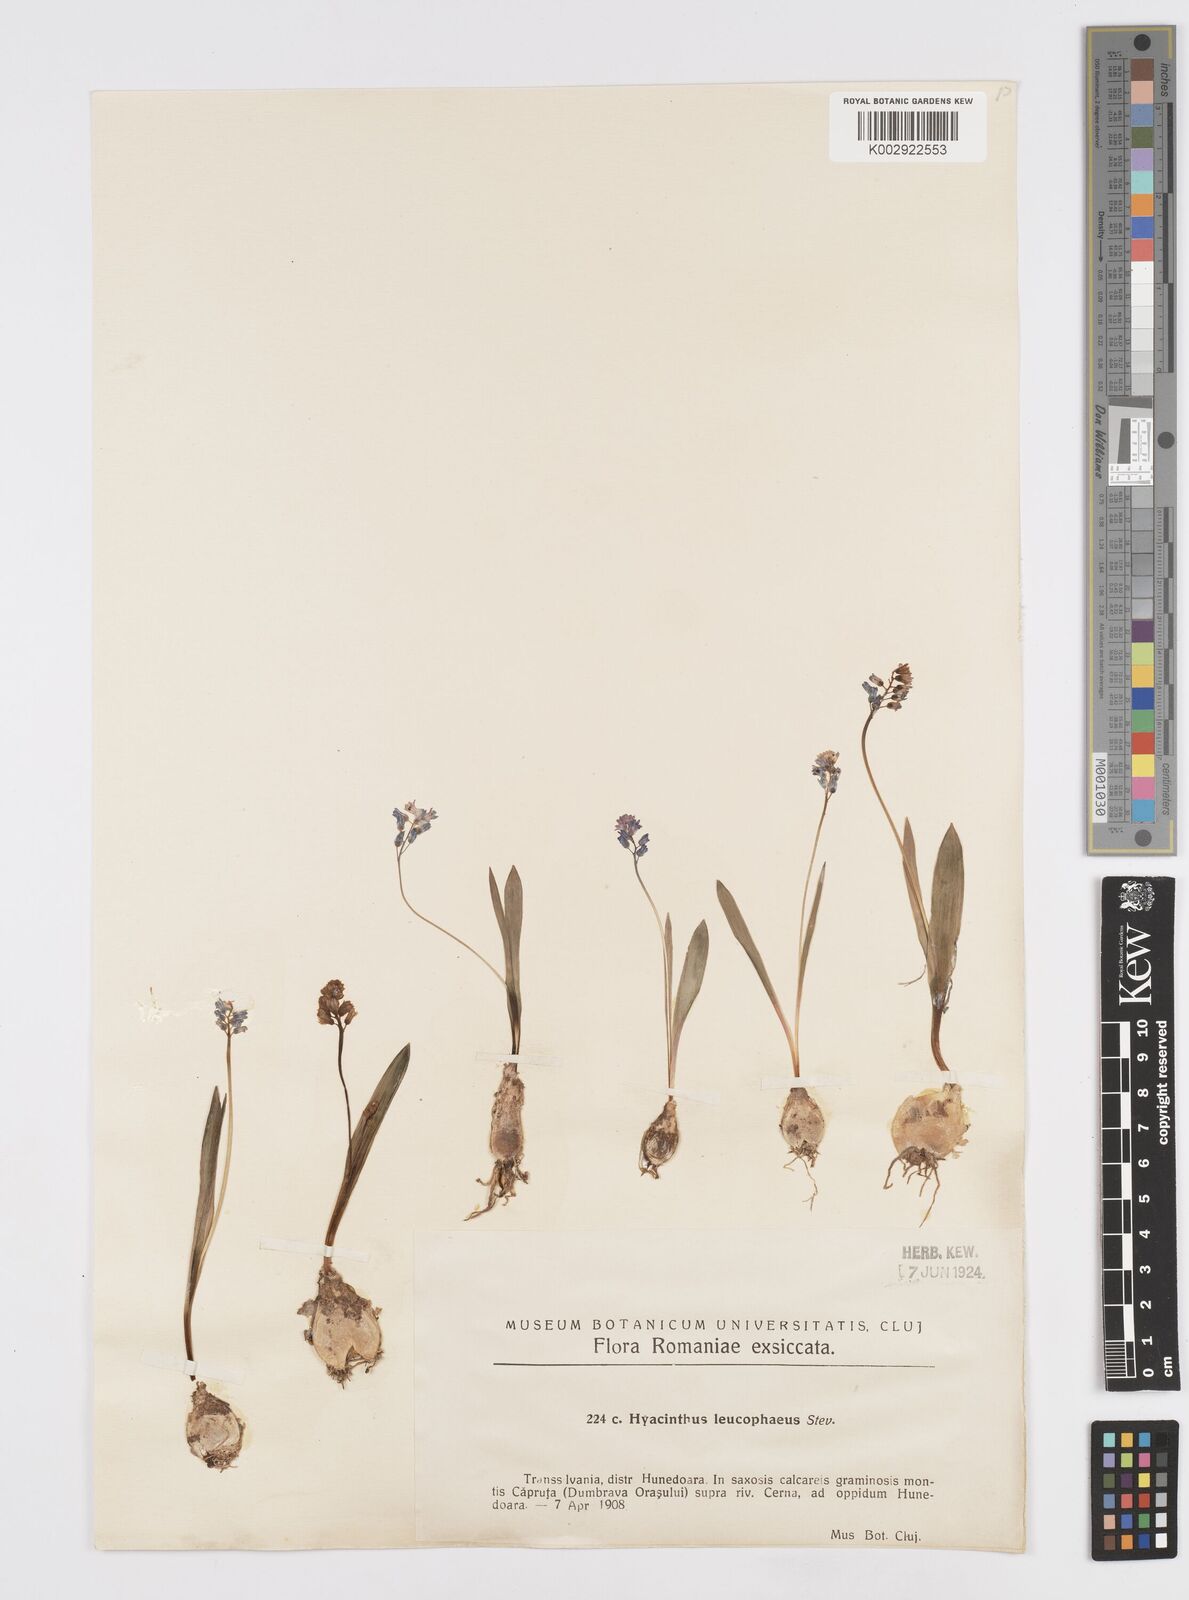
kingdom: Plantae
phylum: Tracheophyta
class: Liliopsida
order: Asparagales
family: Asparagaceae
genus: Hyacinthella
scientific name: Hyacinthella leucophaea
